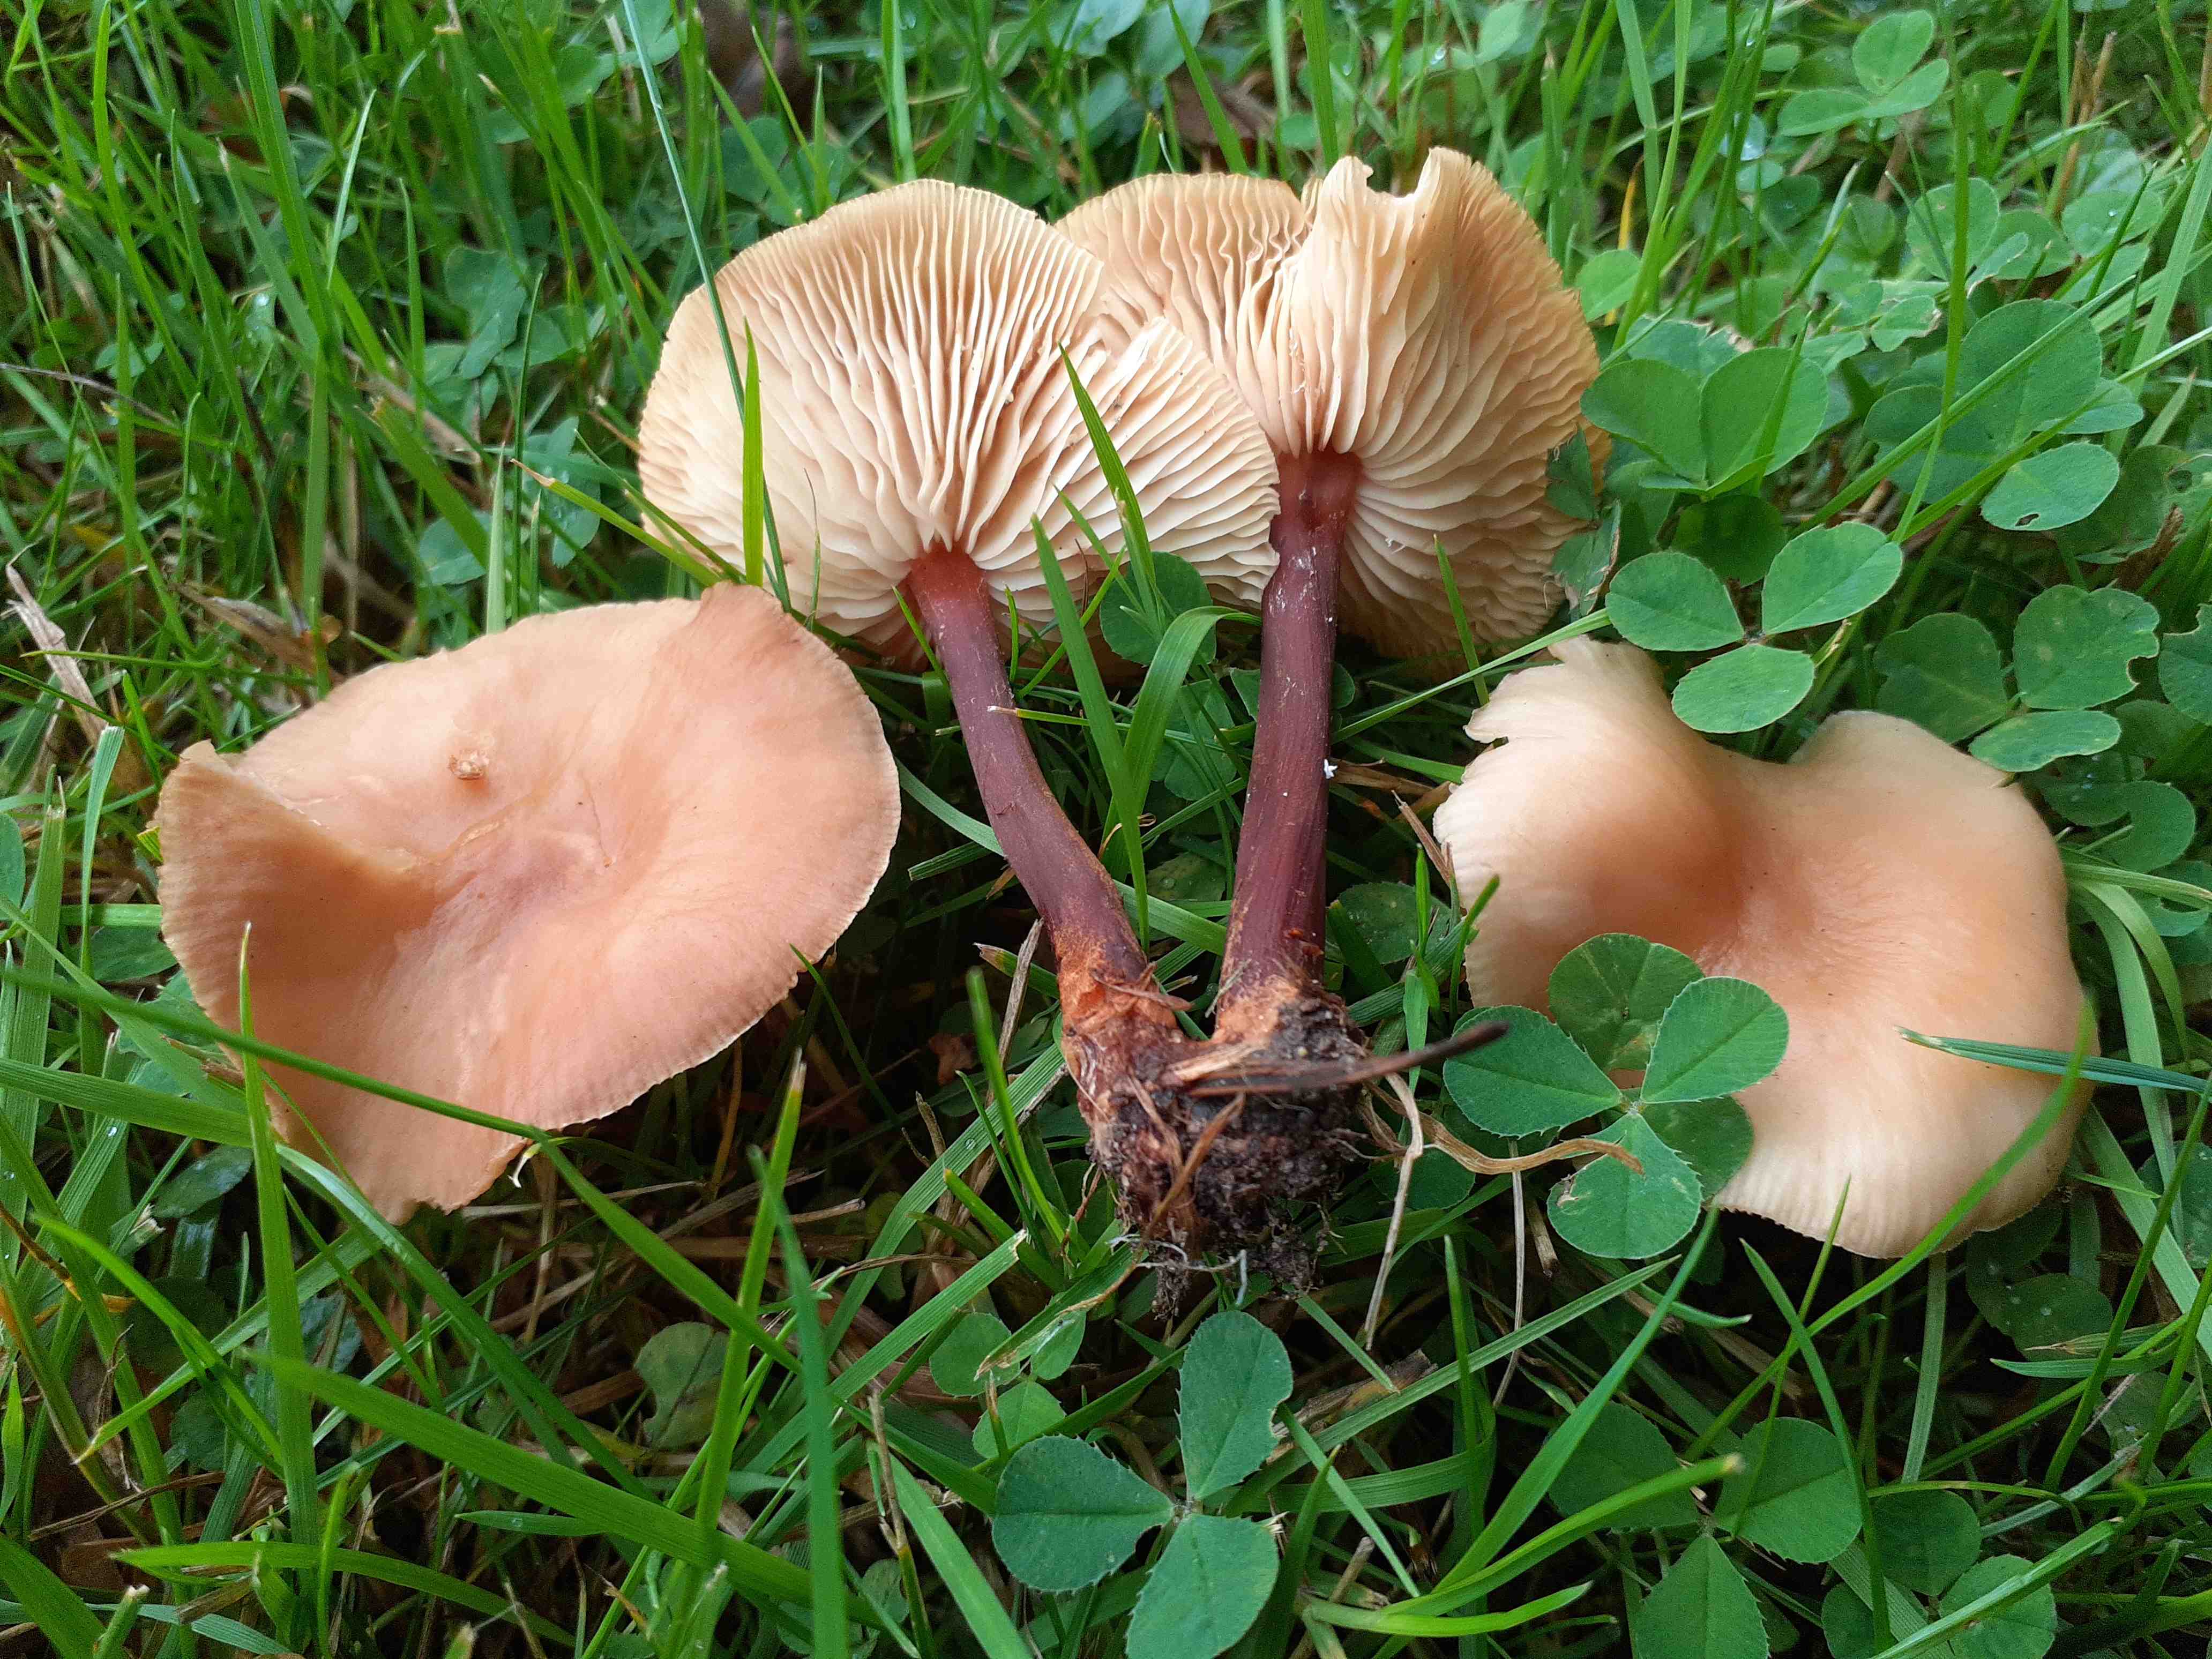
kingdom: Fungi
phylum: Basidiomycota
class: Agaricomycetes
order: Agaricales
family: Omphalotaceae
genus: Gymnopus
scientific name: Gymnopus erythropus
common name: rødstokket fladhat
